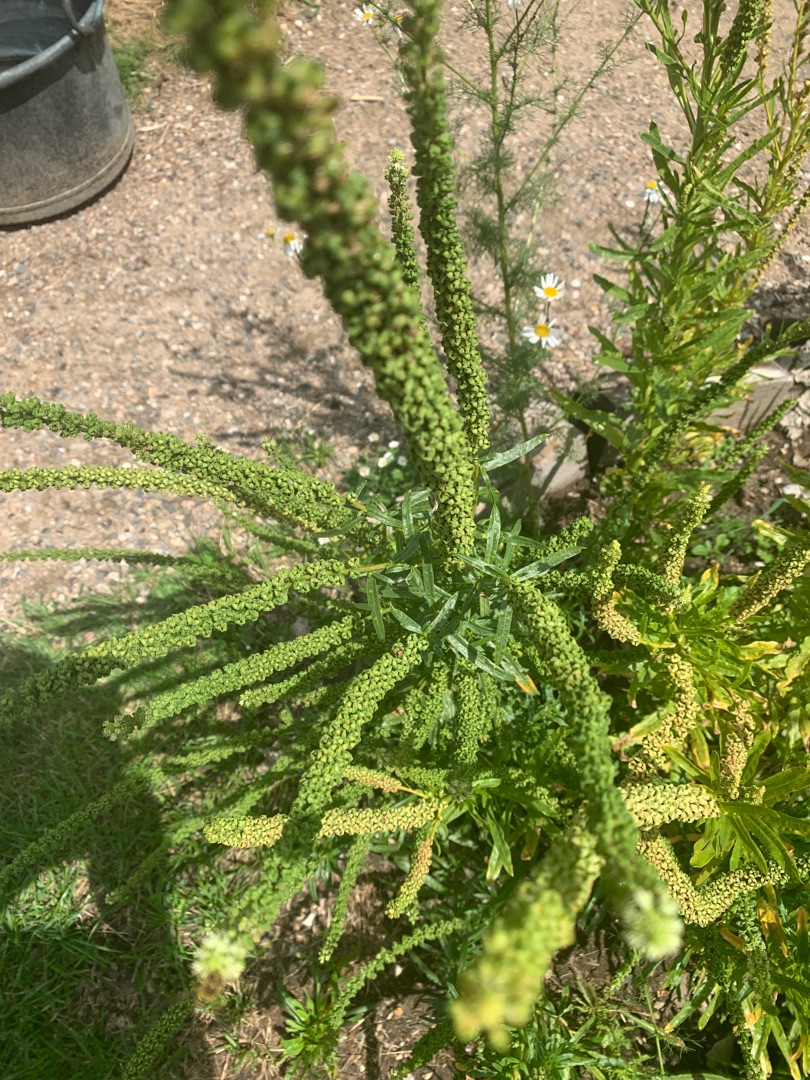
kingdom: Plantae
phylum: Tracheophyta
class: Magnoliopsida
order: Brassicales
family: Resedaceae
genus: Reseda
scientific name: Reseda luteola
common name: Farve-reseda
